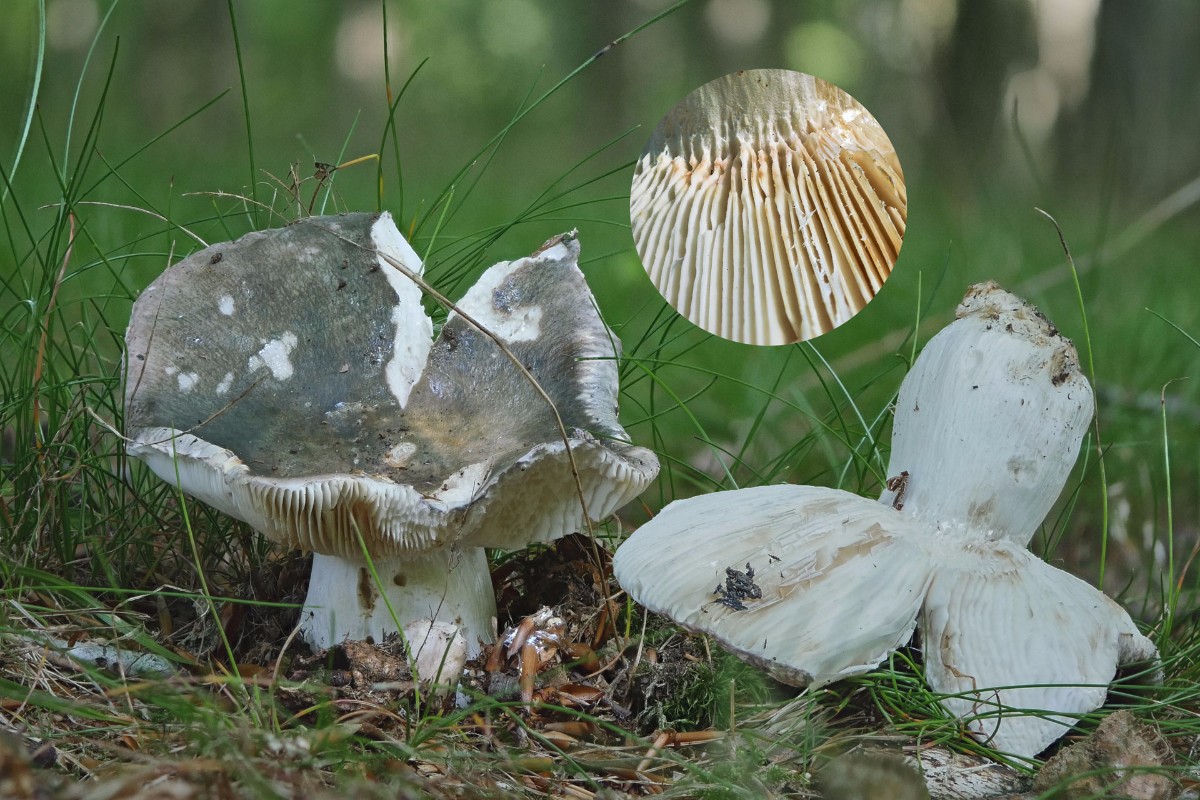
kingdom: Fungi
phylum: Basidiomycota
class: Agaricomycetes
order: Russulales
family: Russulaceae
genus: Russula
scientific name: Russula heterophylla
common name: gaffelbladet skørhat
